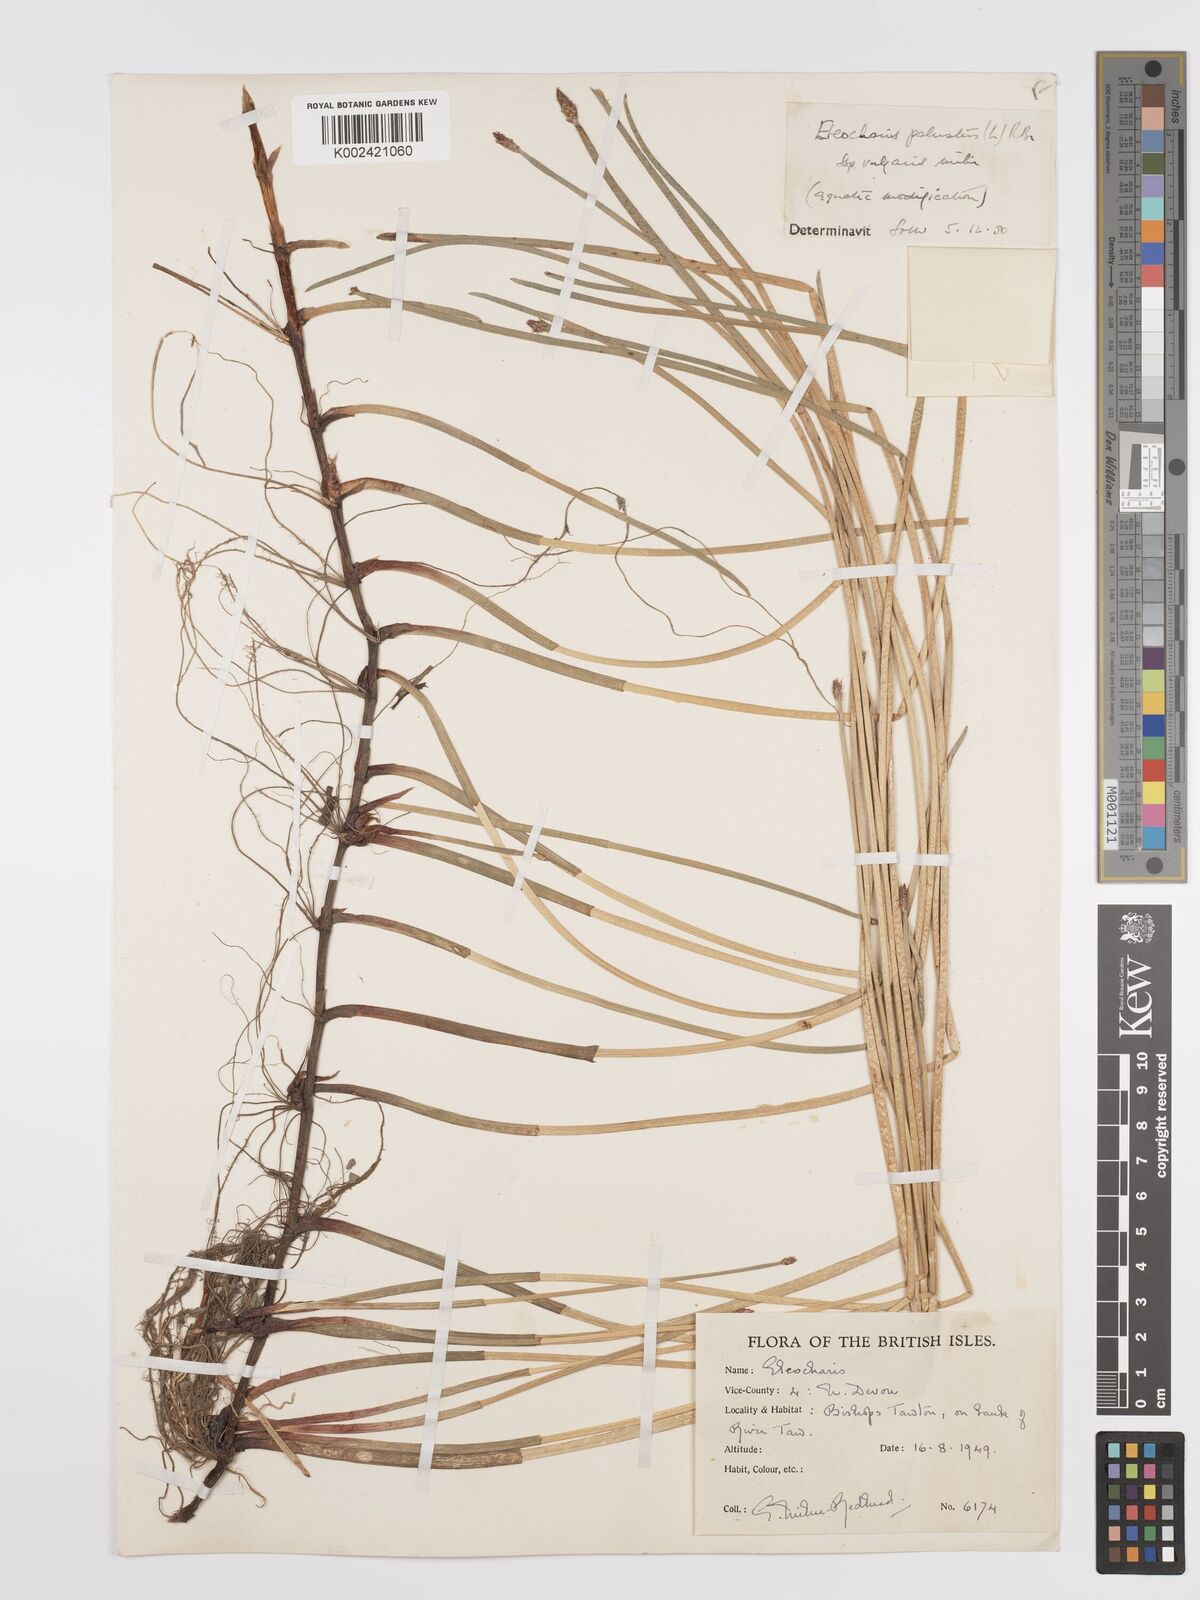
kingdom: Plantae
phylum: Tracheophyta
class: Liliopsida
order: Poales
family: Cyperaceae
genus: Eleocharis
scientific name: Eleocharis palustris
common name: Common spike-rush
